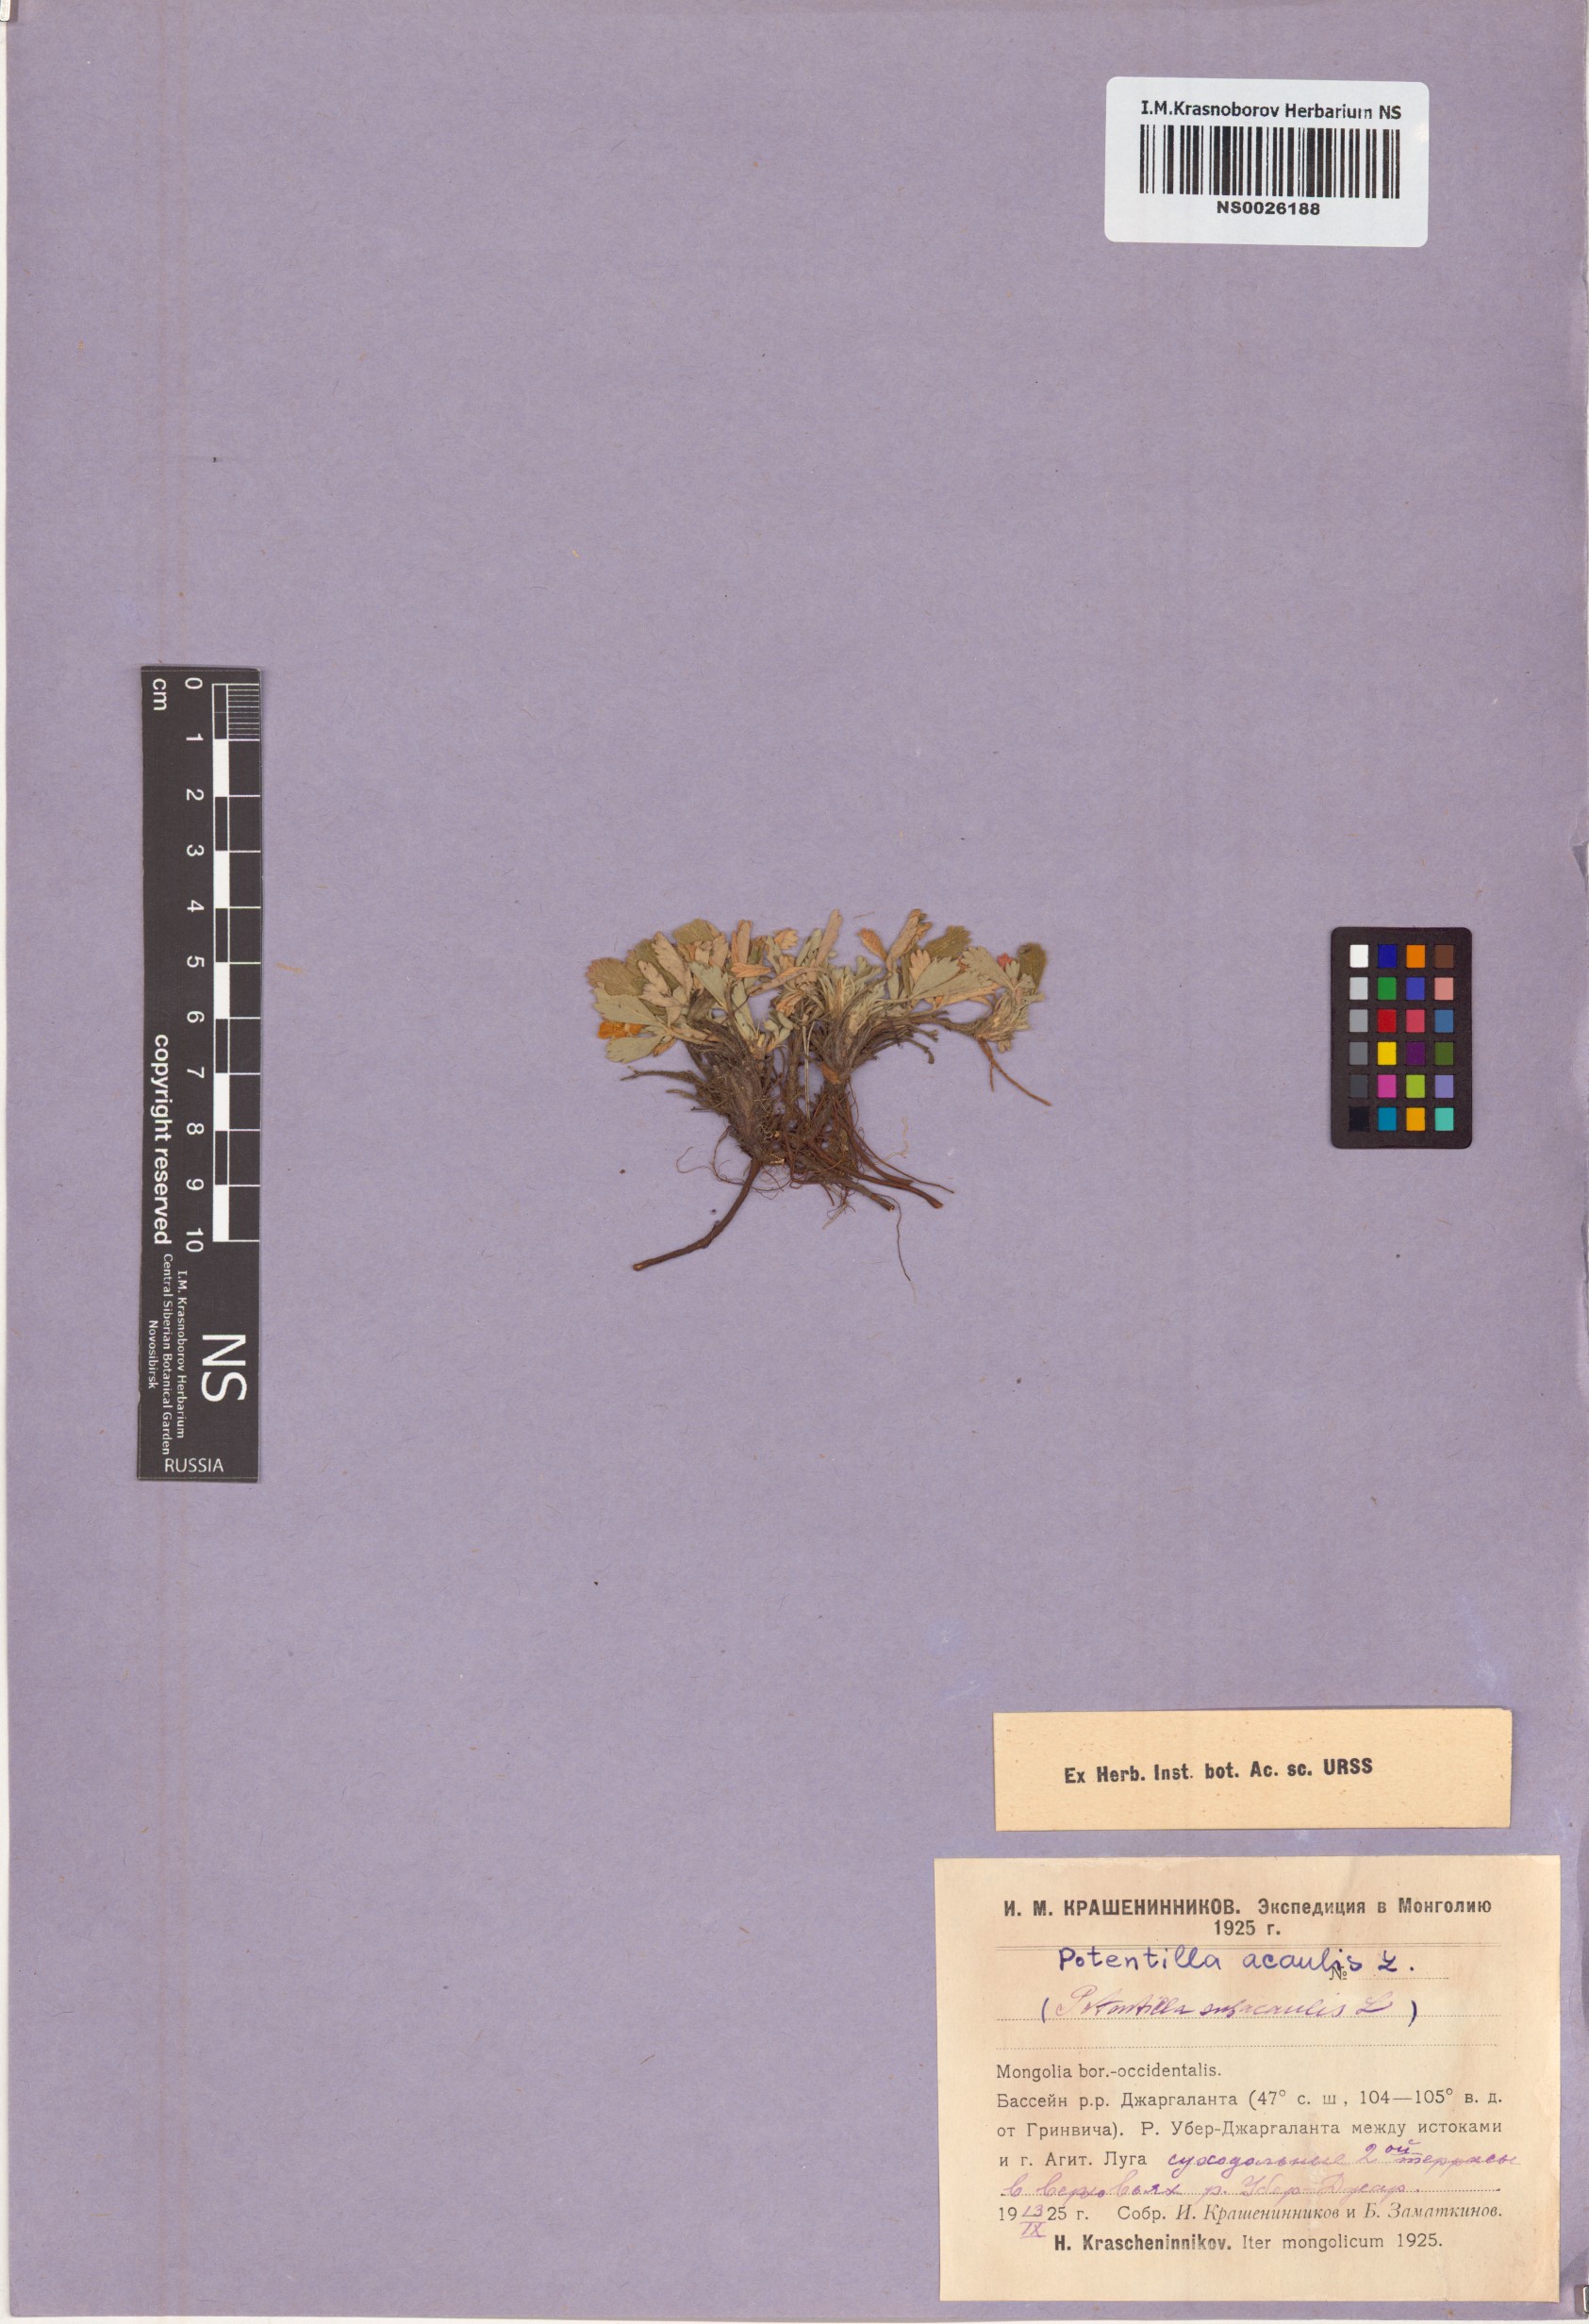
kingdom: Plantae
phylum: Tracheophyta
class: Magnoliopsida
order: Rosales
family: Rosaceae
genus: Potentilla
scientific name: Potentilla acaulis
